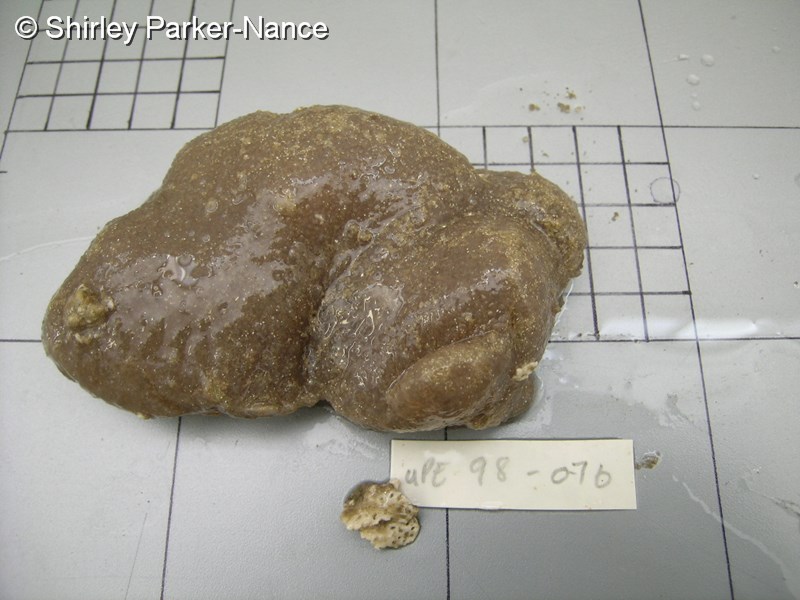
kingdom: Animalia
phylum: Chordata
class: Ascidiacea
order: Aplousobranchia
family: Didemnidae
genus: Didemnum
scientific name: Didemnum
